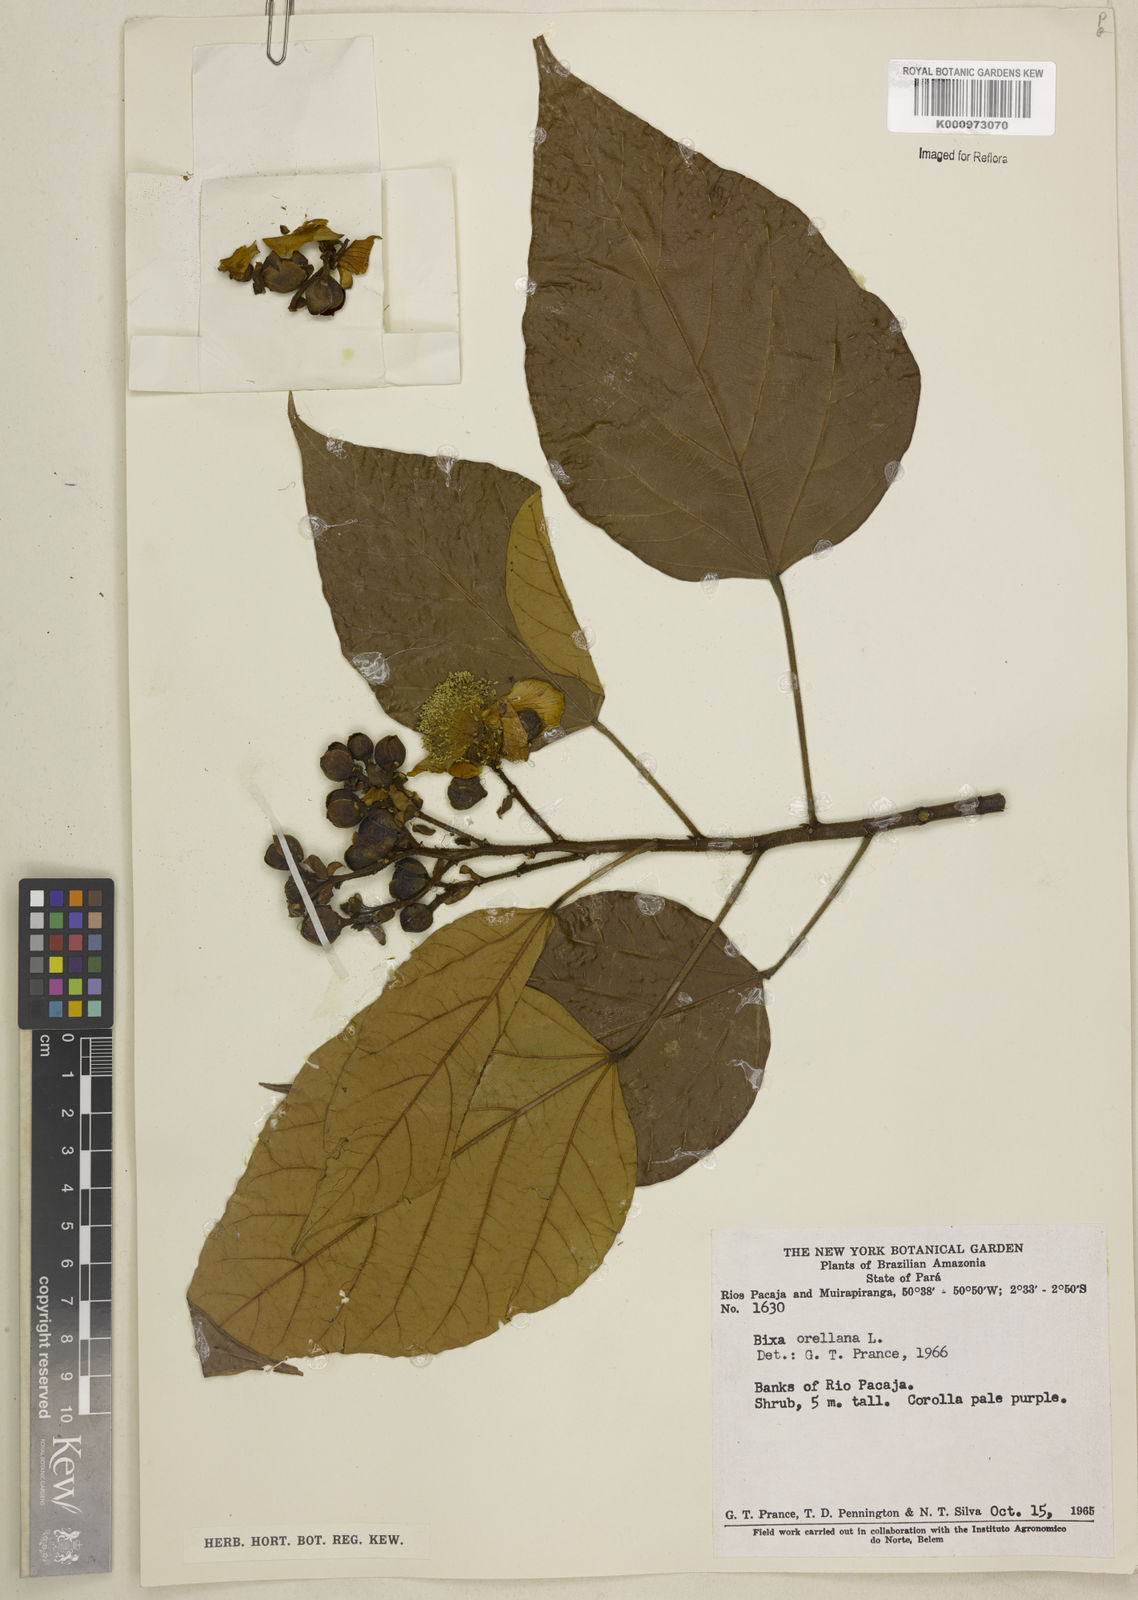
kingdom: Plantae
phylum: Tracheophyta
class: Magnoliopsida
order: Malvales
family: Bixaceae
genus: Bixa
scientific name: Bixa orellana
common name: Lipsticktree
